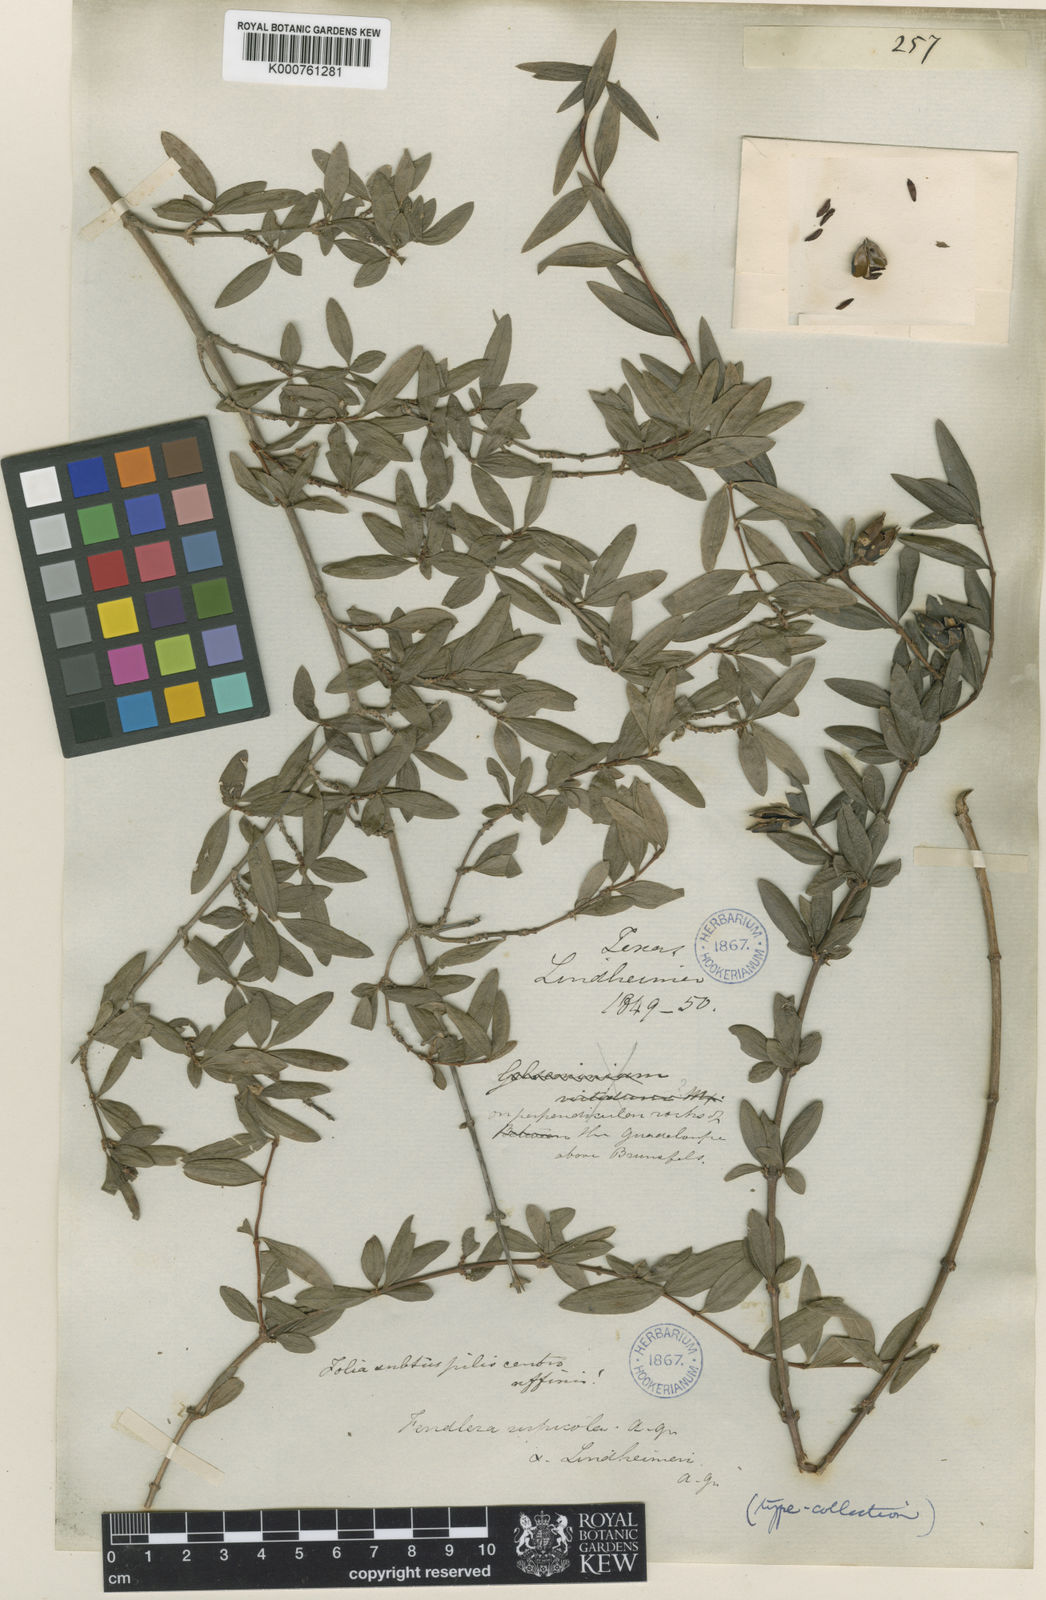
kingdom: Plantae
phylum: Tracheophyta
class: Magnoliopsida
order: Cornales
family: Hydrangeaceae
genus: Fendlera
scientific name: Fendlera rupicola
